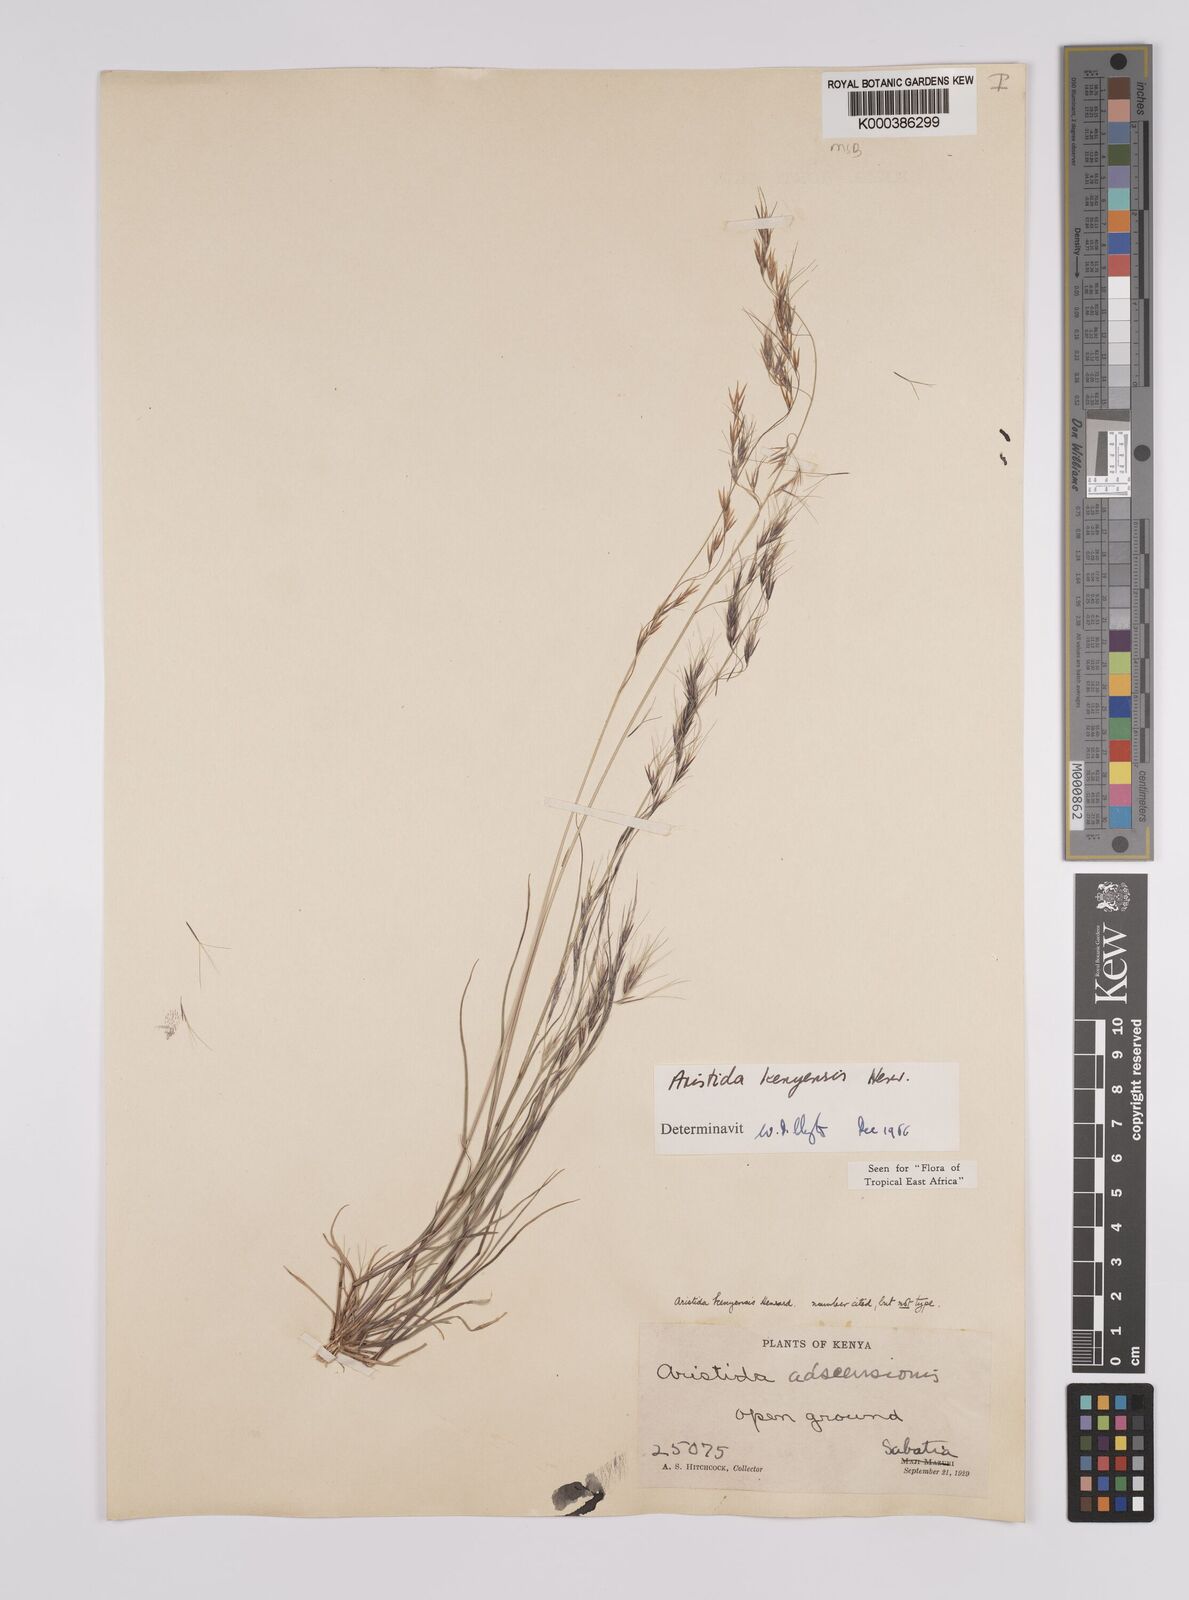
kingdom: Plantae
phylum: Tracheophyta
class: Liliopsida
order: Poales
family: Poaceae
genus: Aristida
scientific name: Aristida kenyensis
